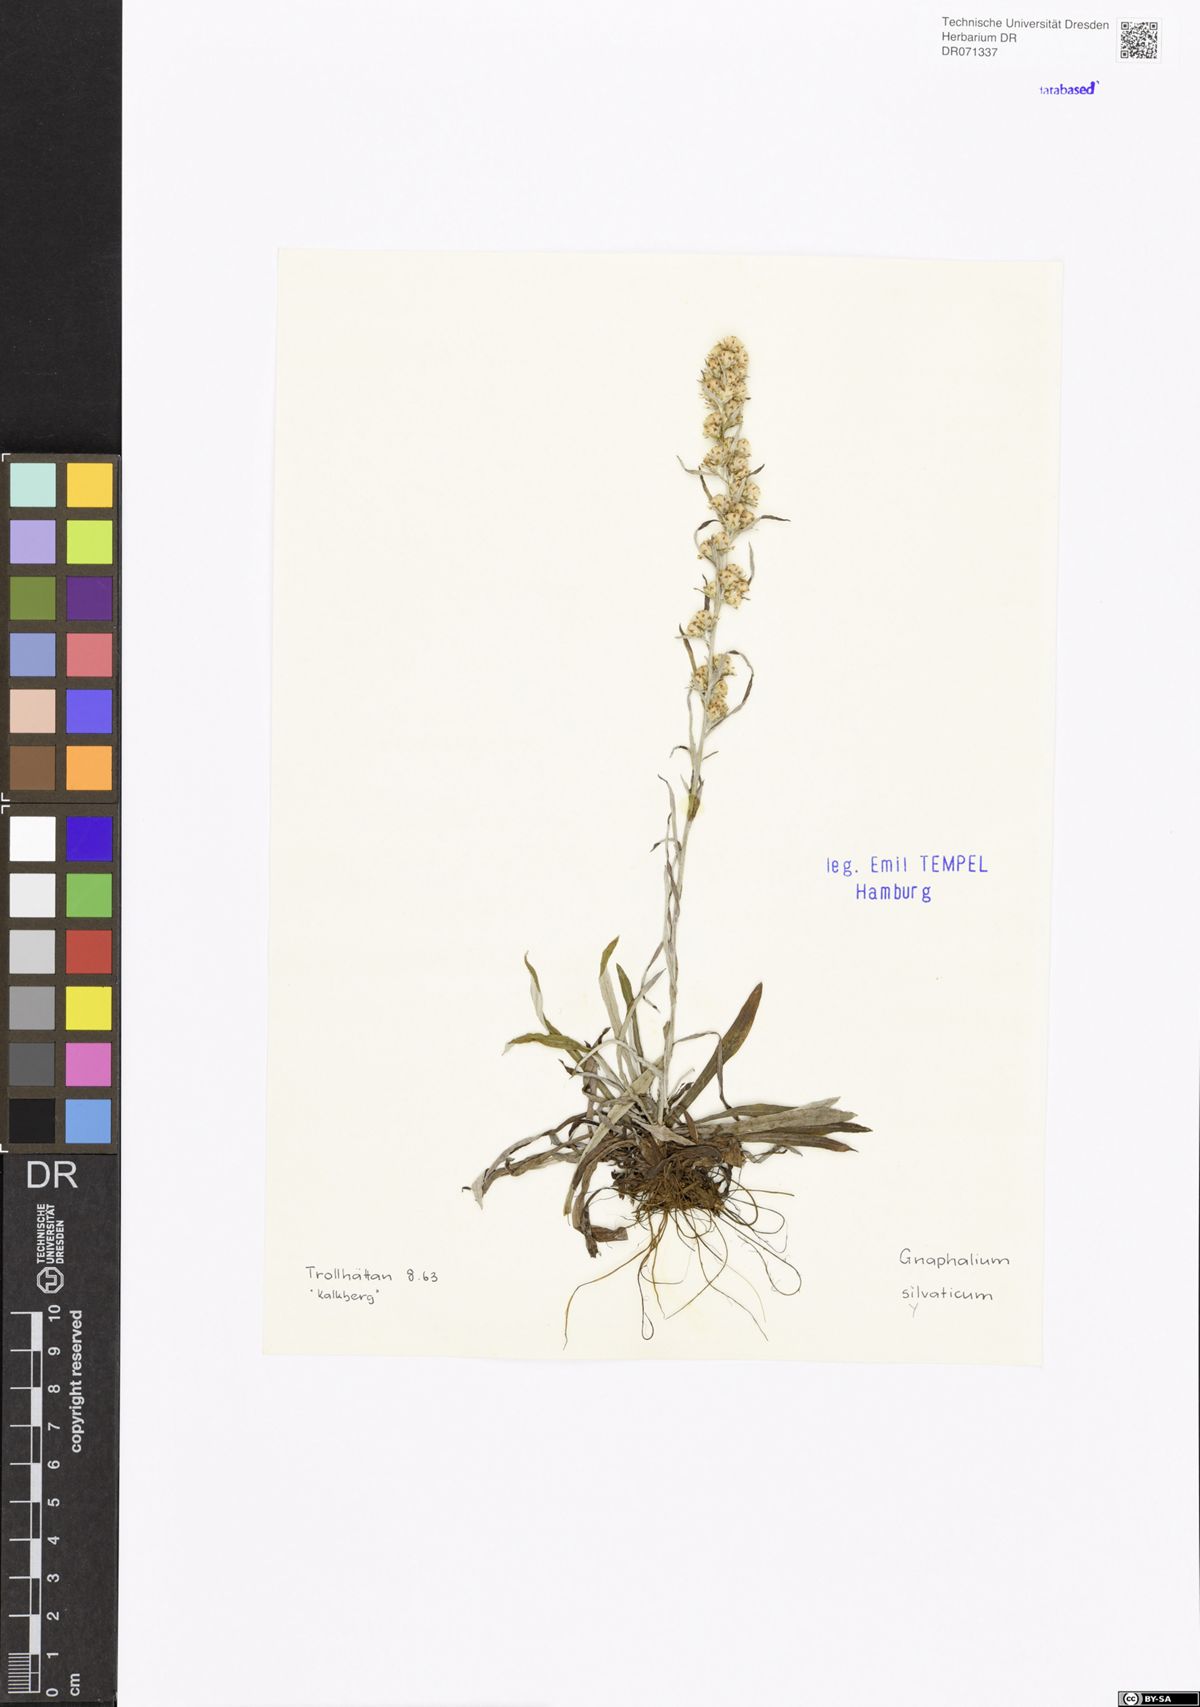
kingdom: Plantae
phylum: Tracheophyta
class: Magnoliopsida
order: Asterales
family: Asteraceae
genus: Omalotheca
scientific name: Omalotheca sylvatica
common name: Heath cudweed
